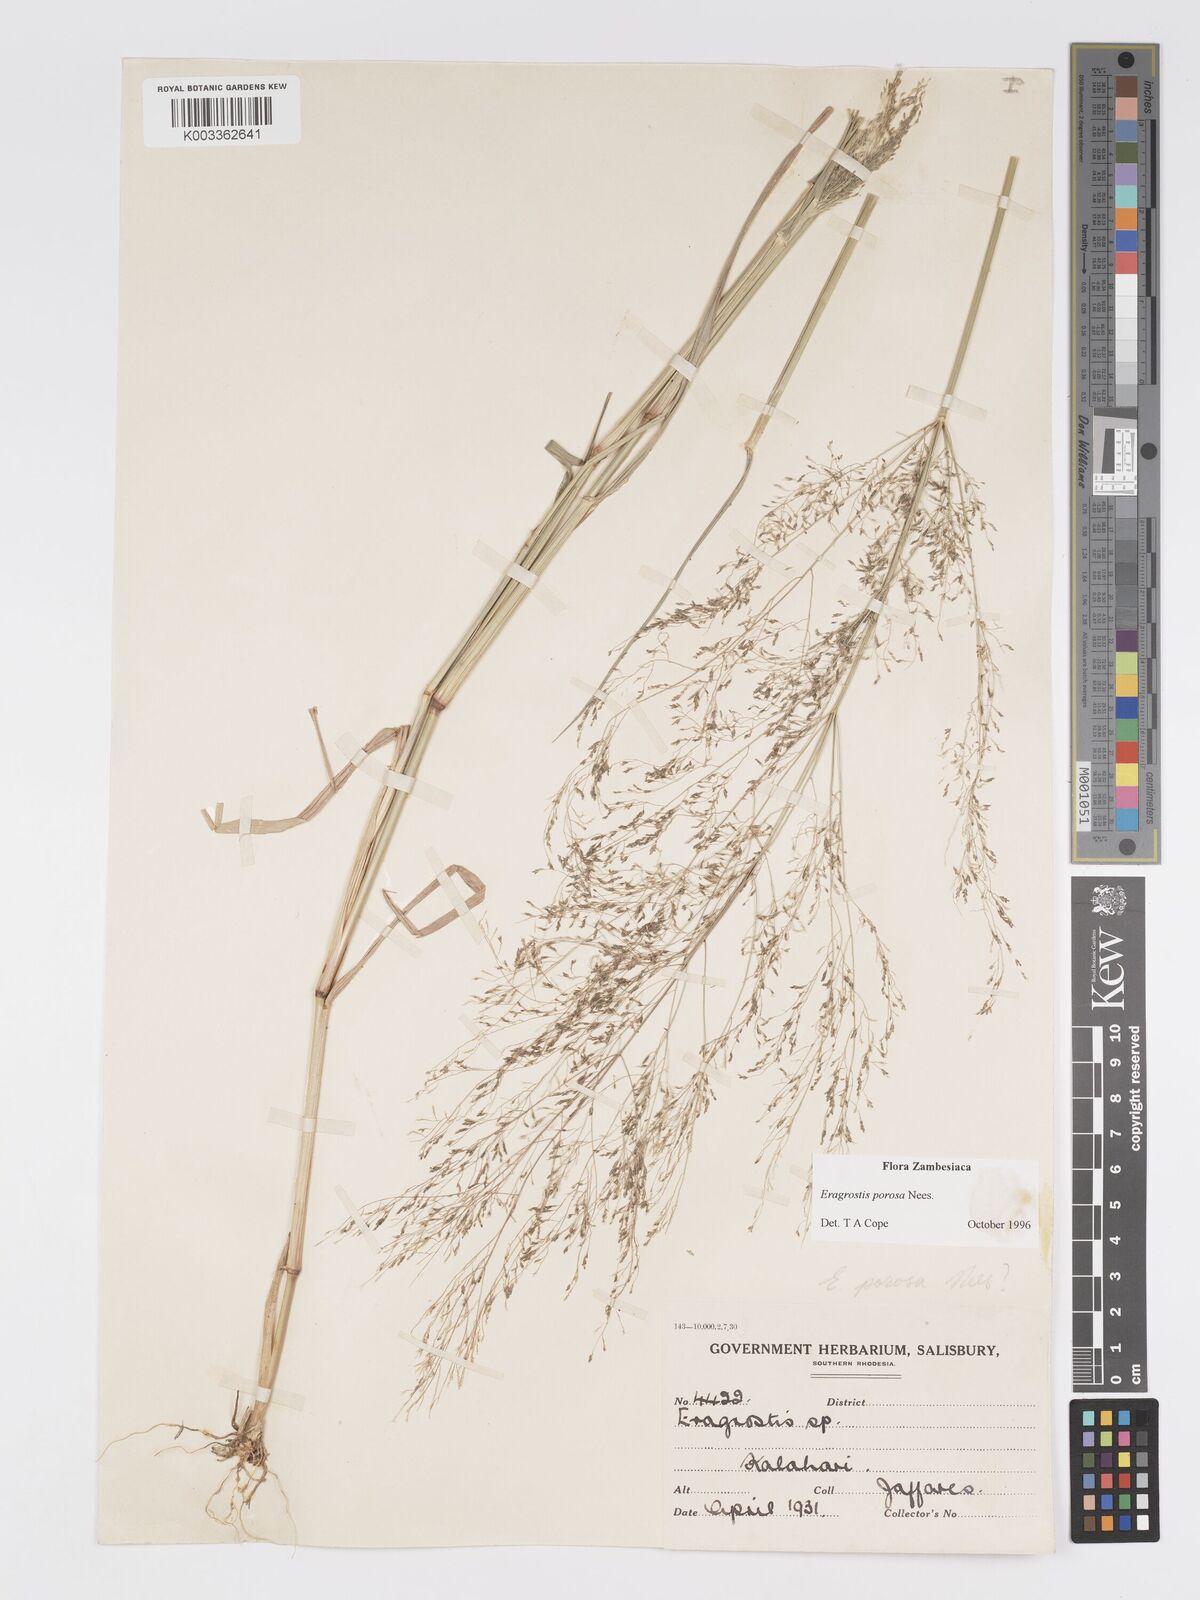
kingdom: Plantae
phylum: Tracheophyta
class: Liliopsida
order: Poales
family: Poaceae
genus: Eragrostis
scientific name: Eragrostis porosa
